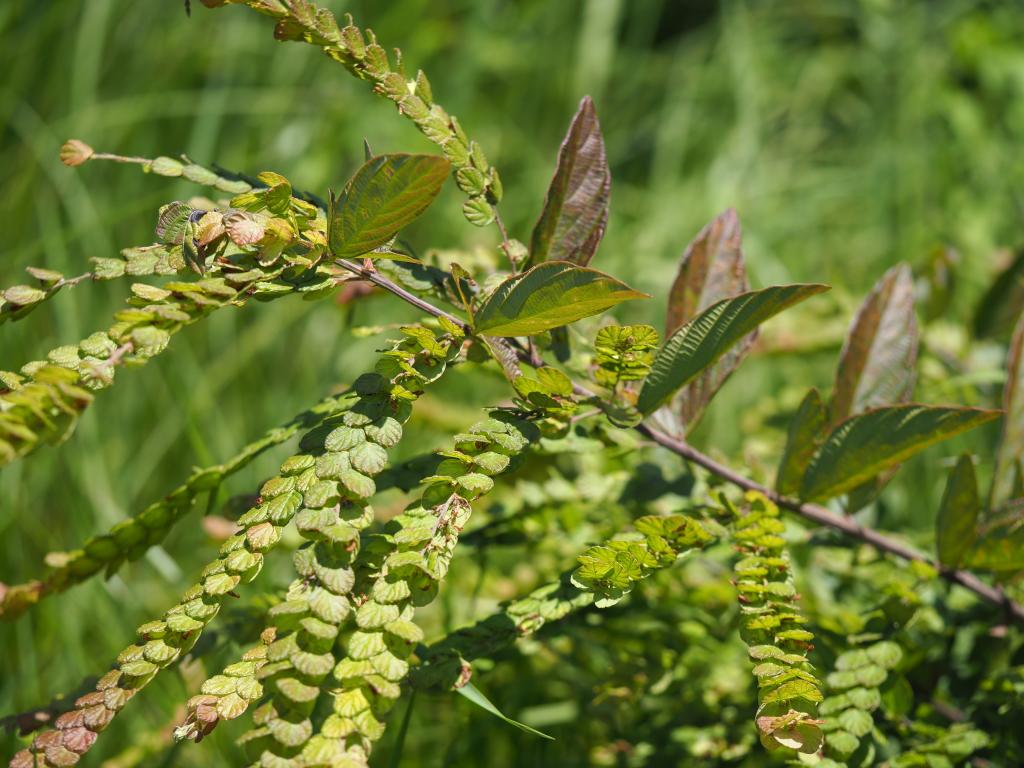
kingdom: Plantae
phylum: Tracheophyta
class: Magnoliopsida
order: Fabales
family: Fabaceae
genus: Phyllodium
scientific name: Phyllodium pulchellum
